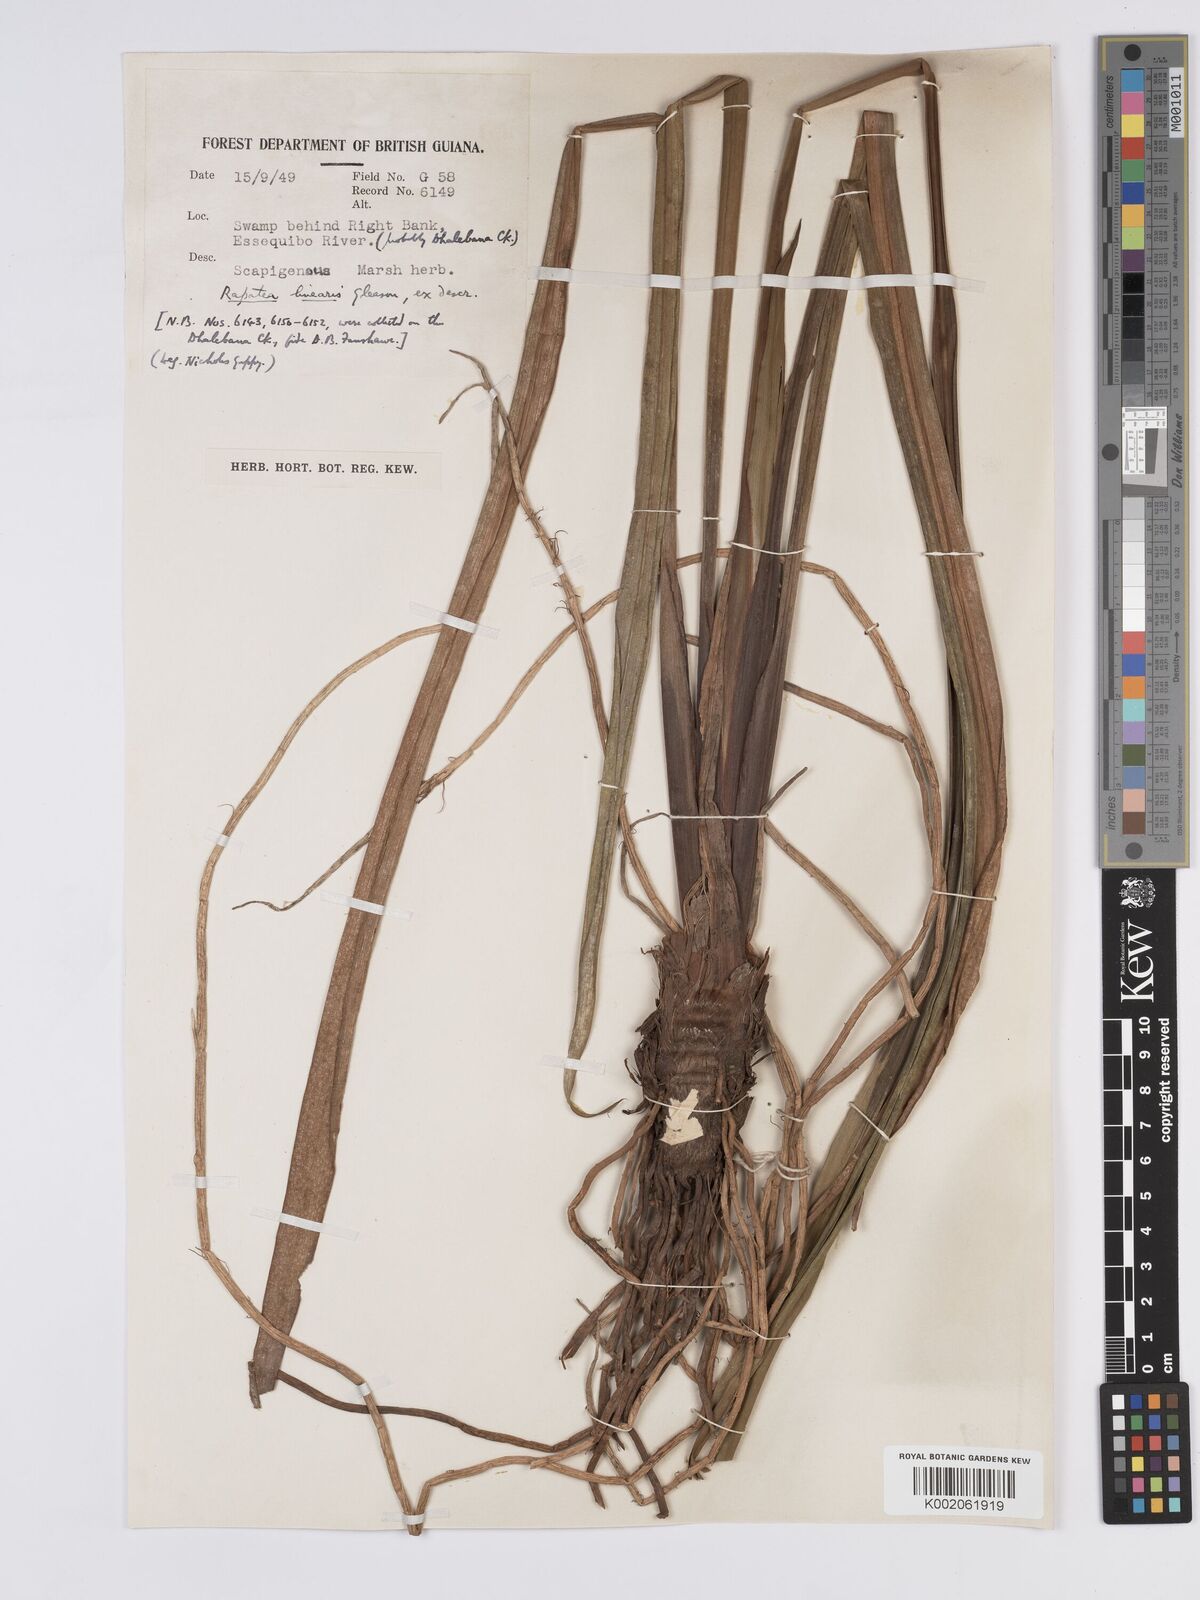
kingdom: Plantae
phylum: Tracheophyta
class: Liliopsida
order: Poales
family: Rapateaceae
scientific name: Rapateaceae
